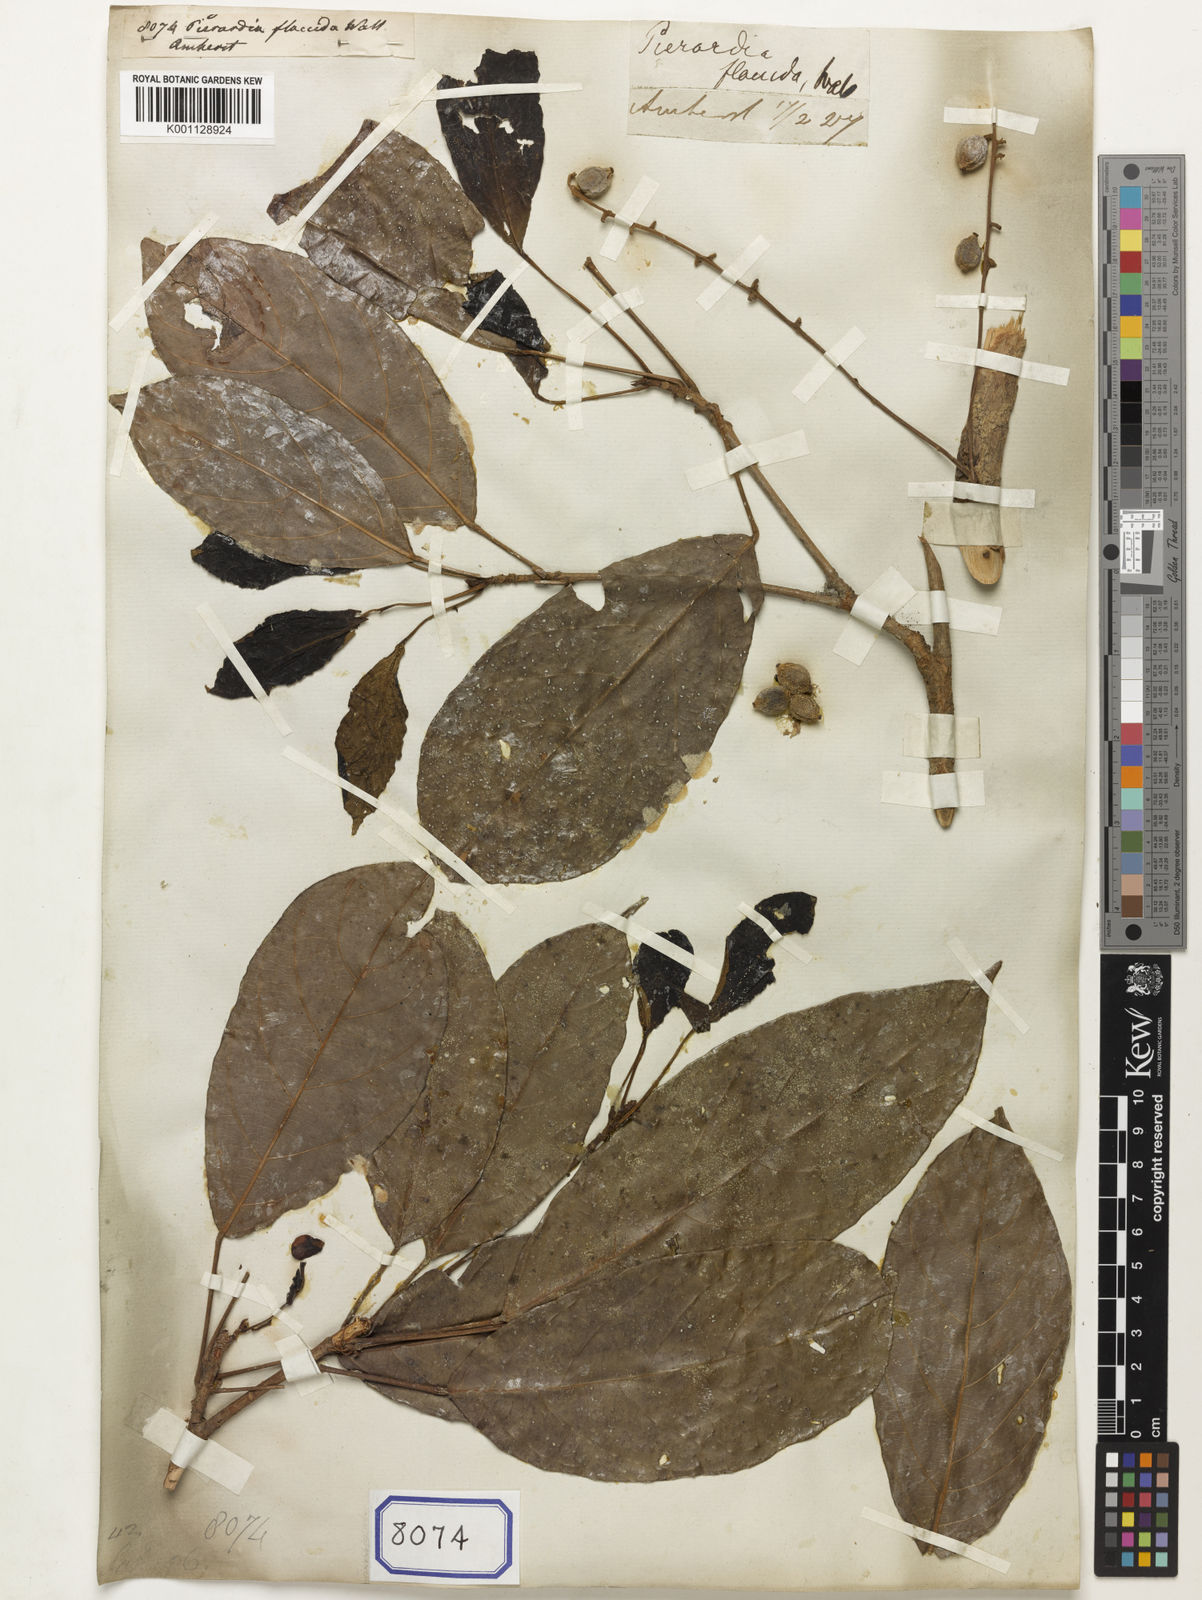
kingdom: Plantae
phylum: Tracheophyta
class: Magnoliopsida
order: Malpighiales
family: Phyllanthaceae
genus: Baccaurea
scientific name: Baccaurea ramiflora
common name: Baccaurea
